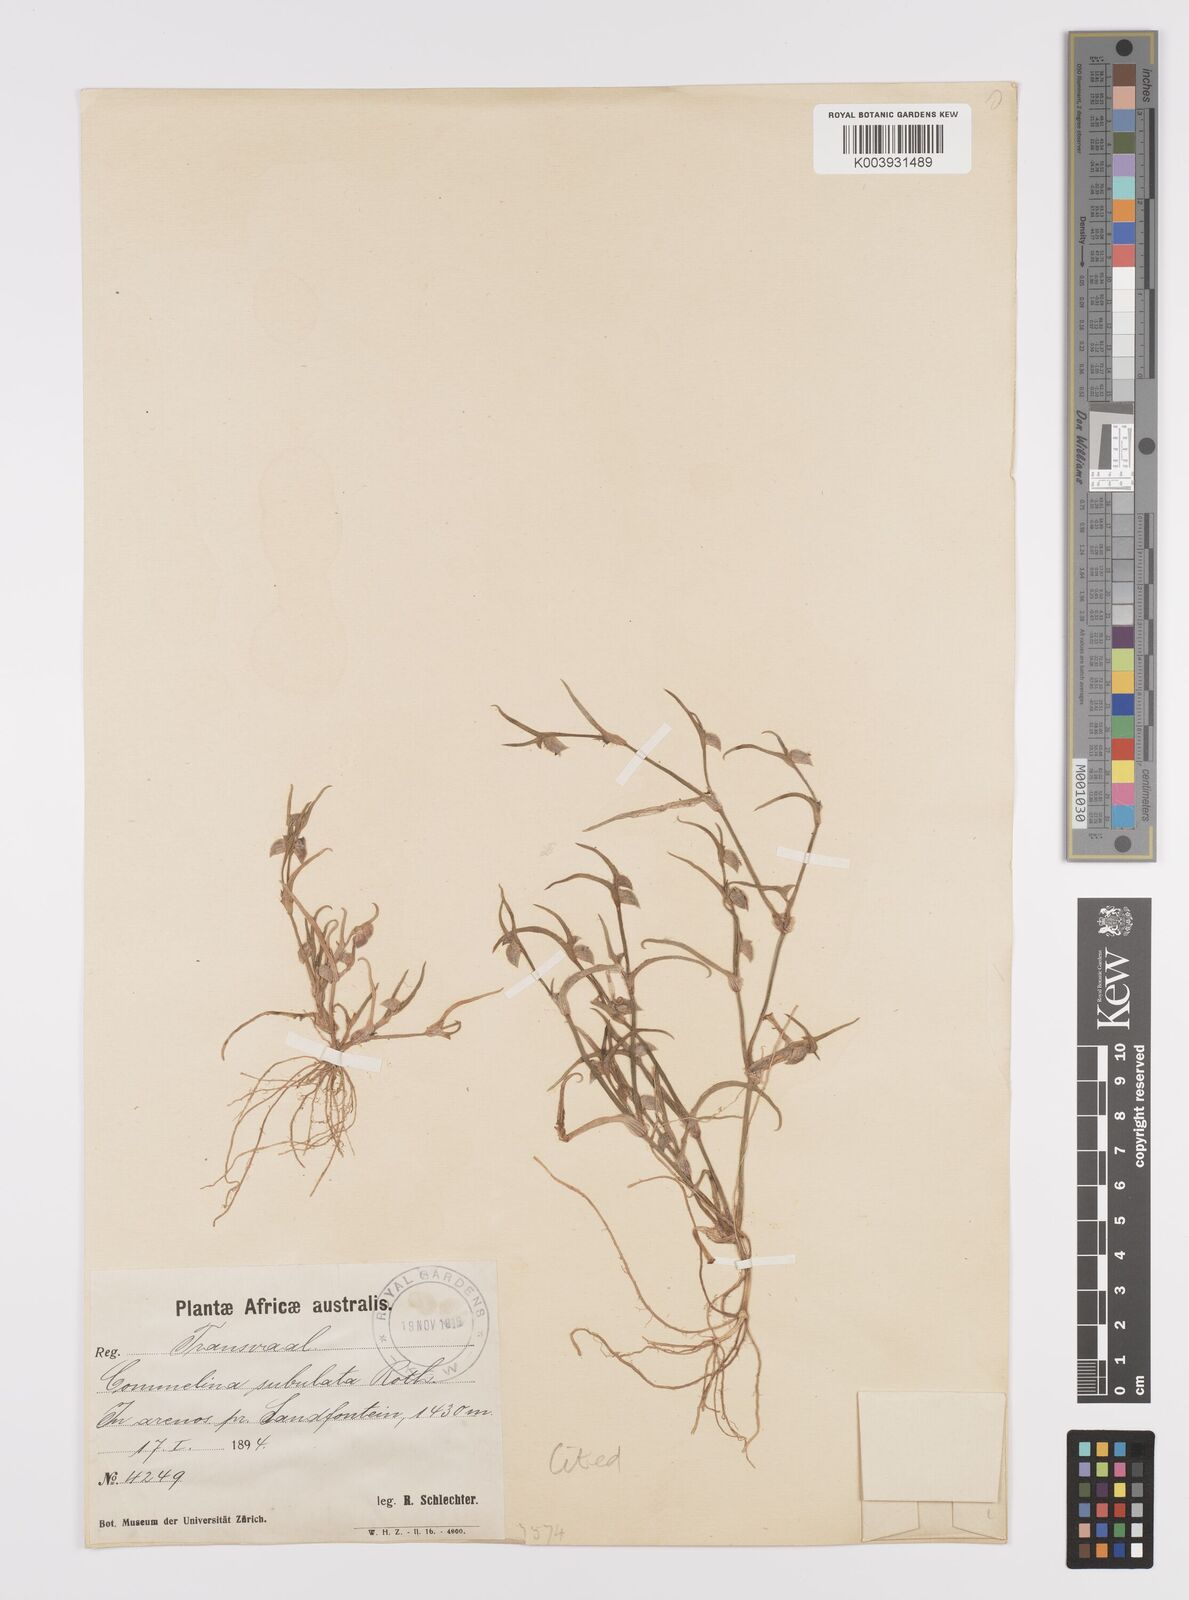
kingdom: Plantae
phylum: Tracheophyta
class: Liliopsida
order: Commelinales
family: Commelinaceae
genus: Commelina
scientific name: Commelina subulata
